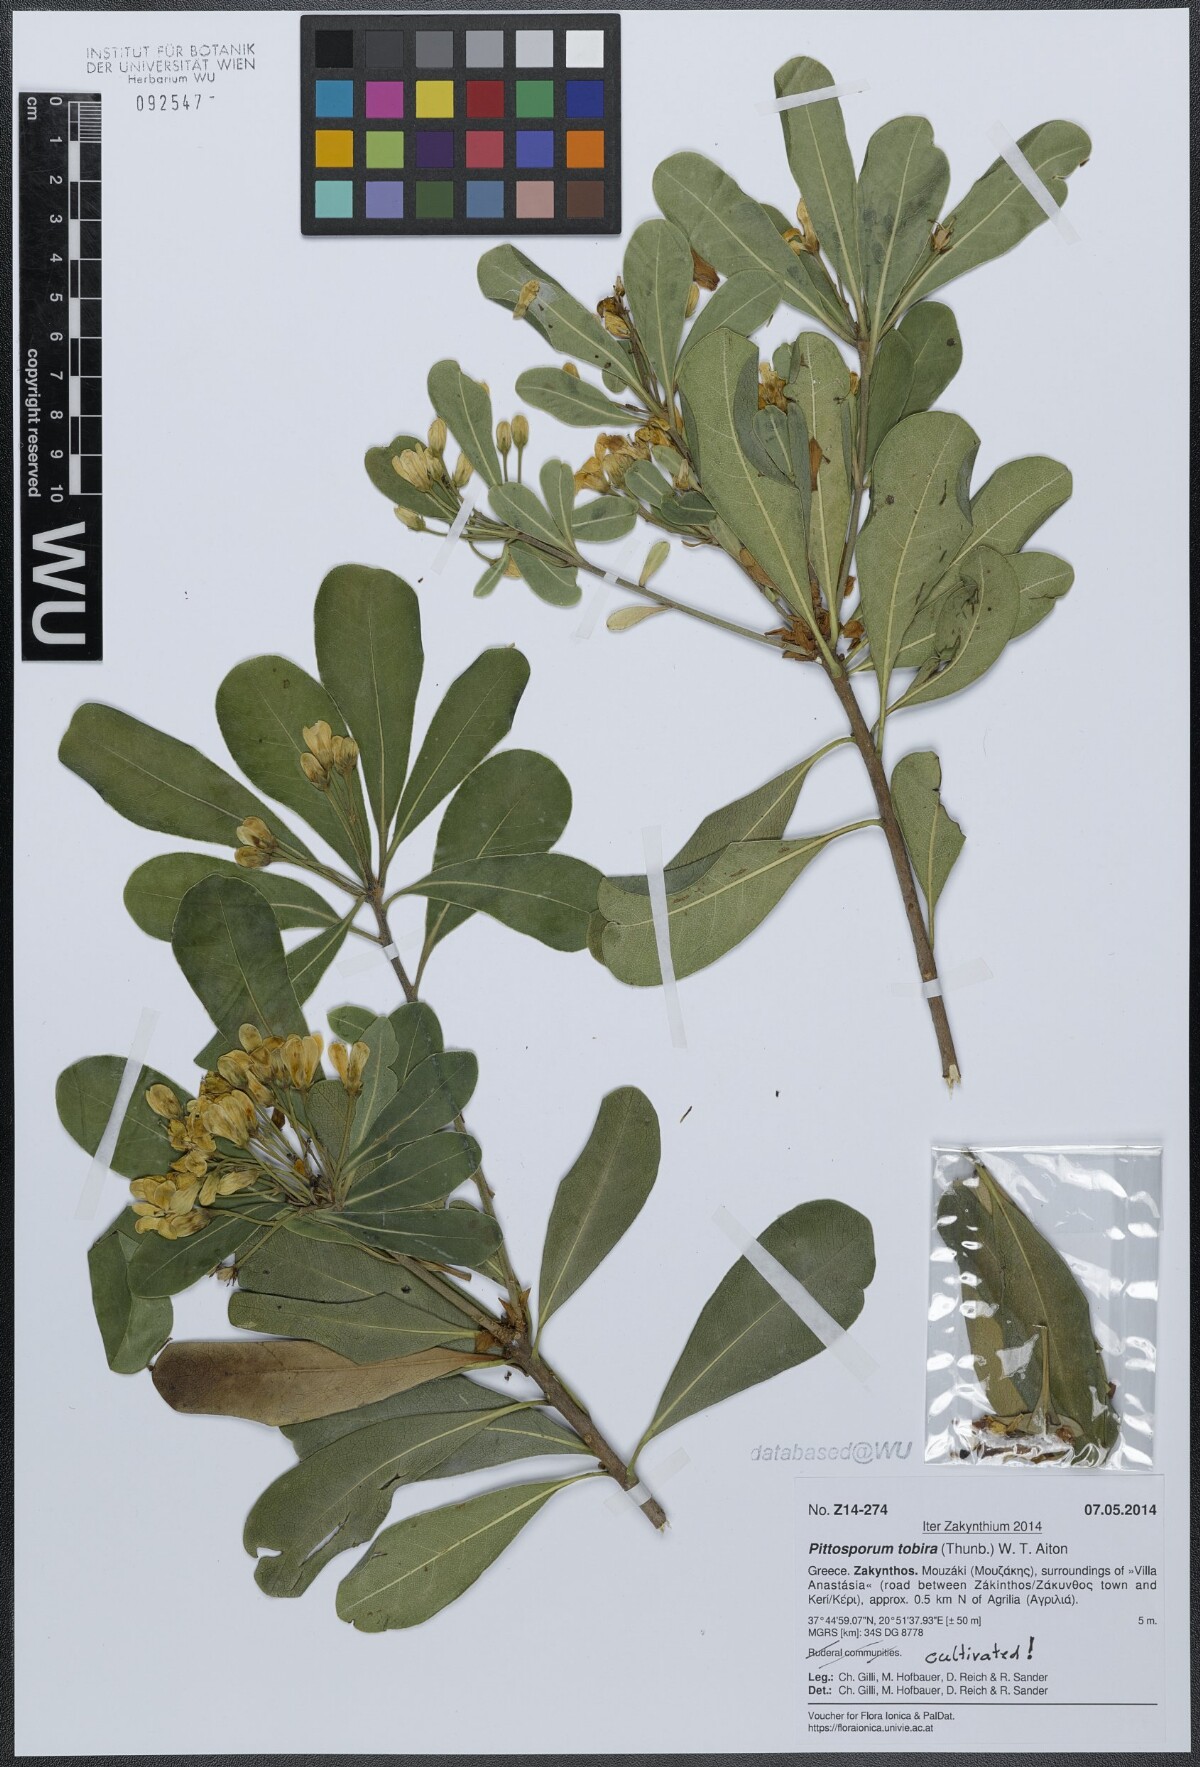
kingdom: Plantae
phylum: Tracheophyta
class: Magnoliopsida
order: Apiales
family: Pittosporaceae
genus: Pittosporum
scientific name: Pittosporum tobira
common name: Japanese cheesewood
